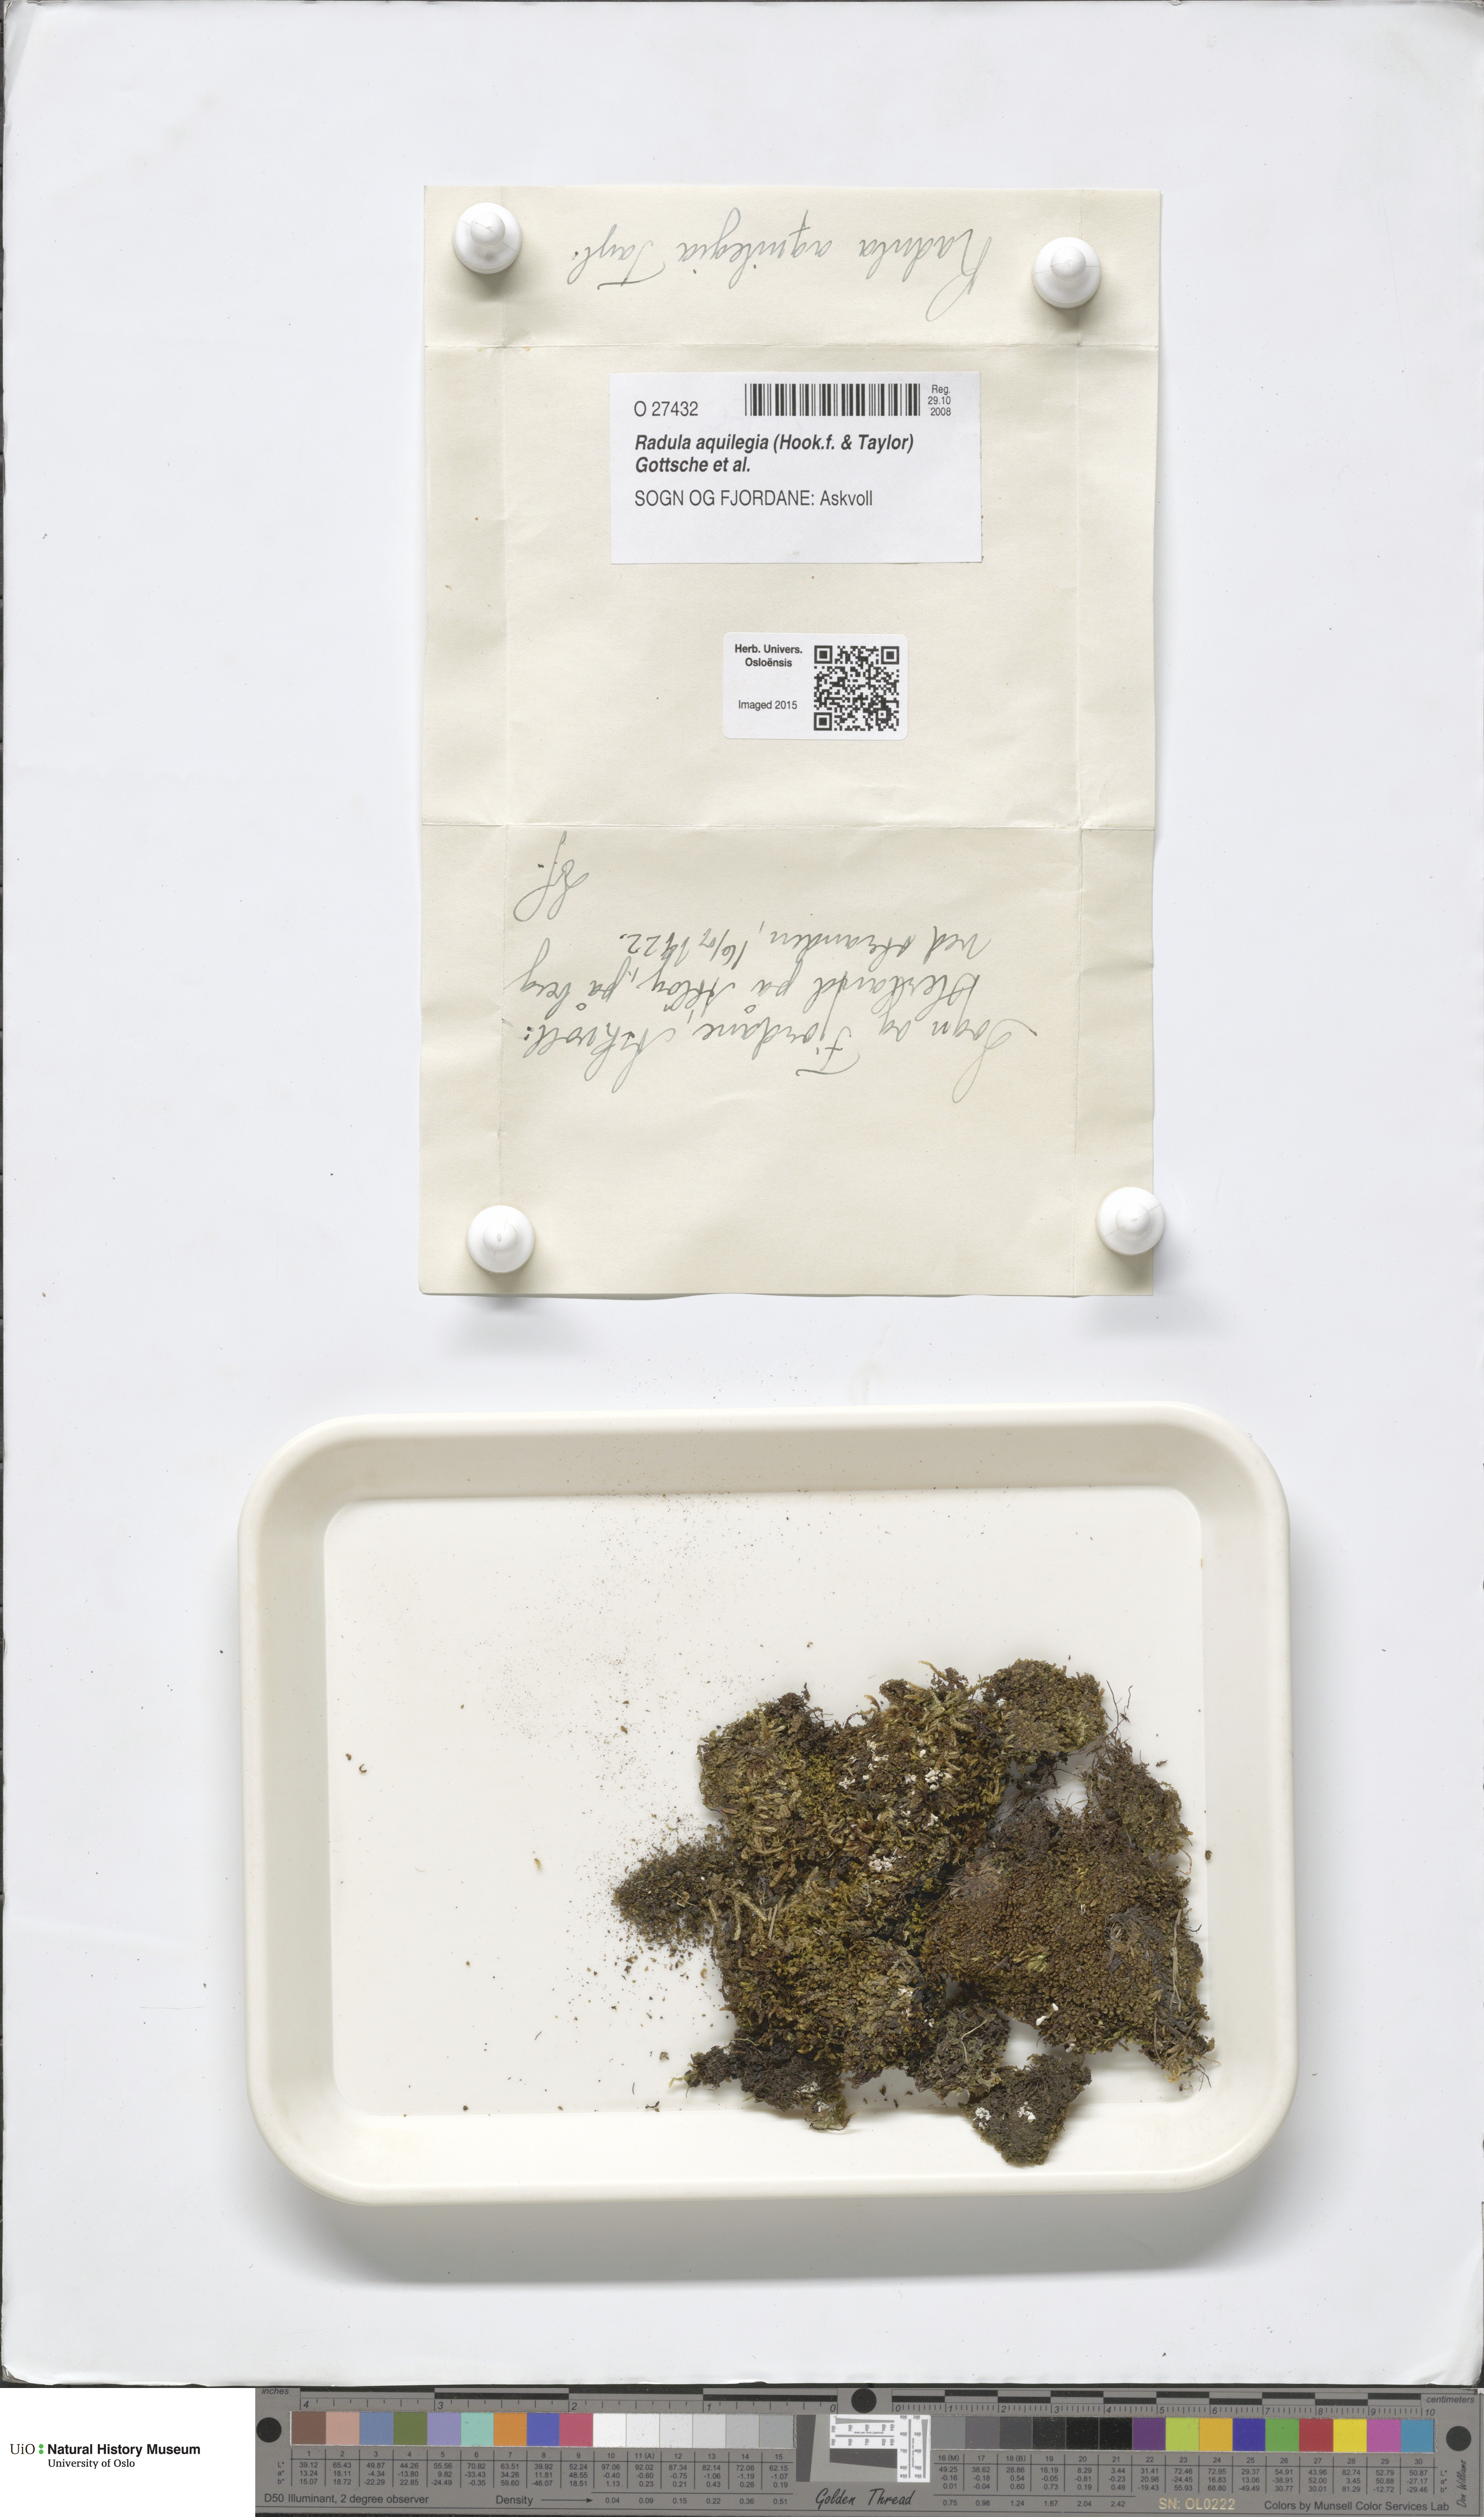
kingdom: Plantae
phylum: Marchantiophyta
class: Jungermanniopsida
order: Porellales
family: Radulaceae
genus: Radula
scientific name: Radula aquilegia
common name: Brown scalewort
